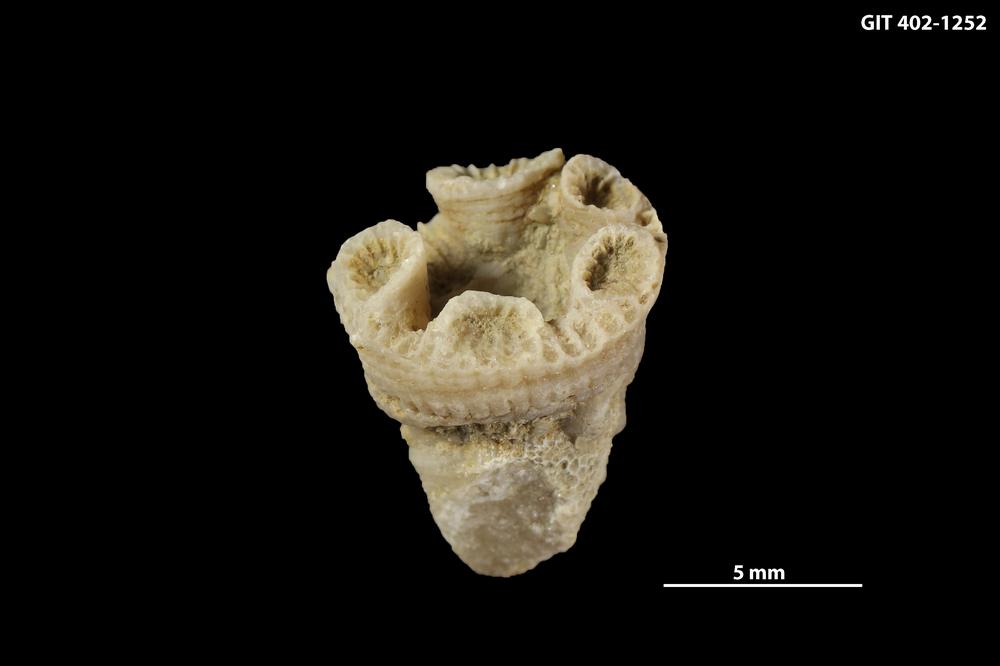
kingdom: Animalia
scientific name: Animalia
